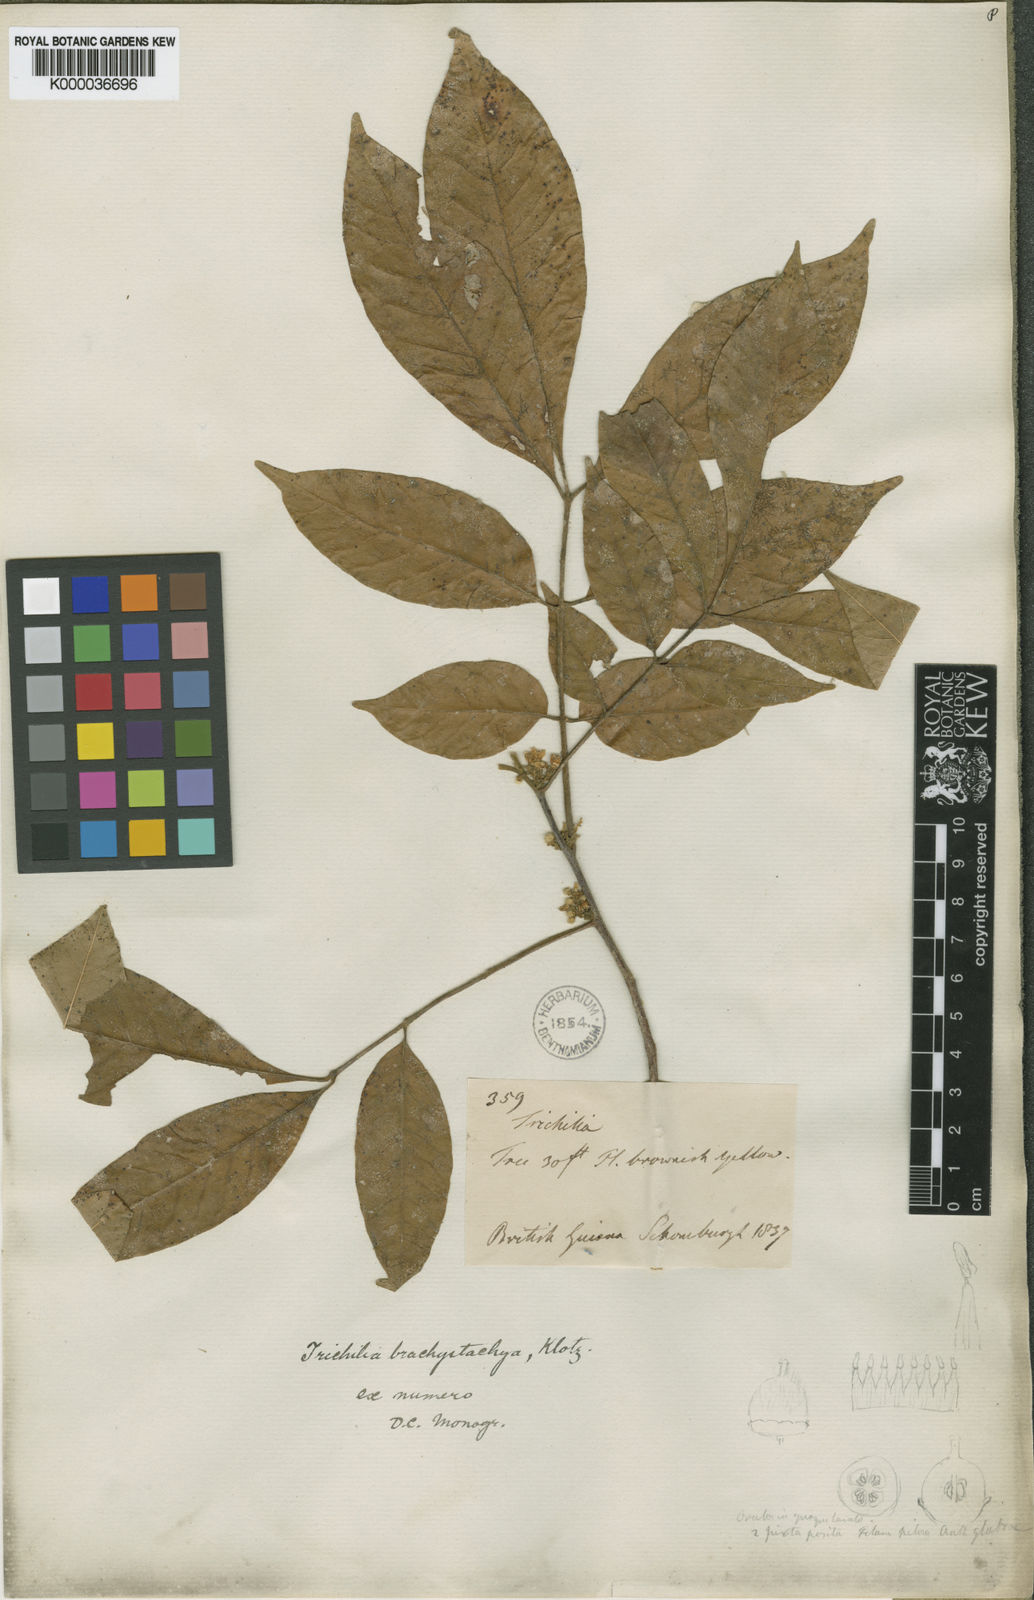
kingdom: Plantae
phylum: Tracheophyta
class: Magnoliopsida
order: Sapindales
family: Meliaceae
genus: Trichilia
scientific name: Trichilia pallida
